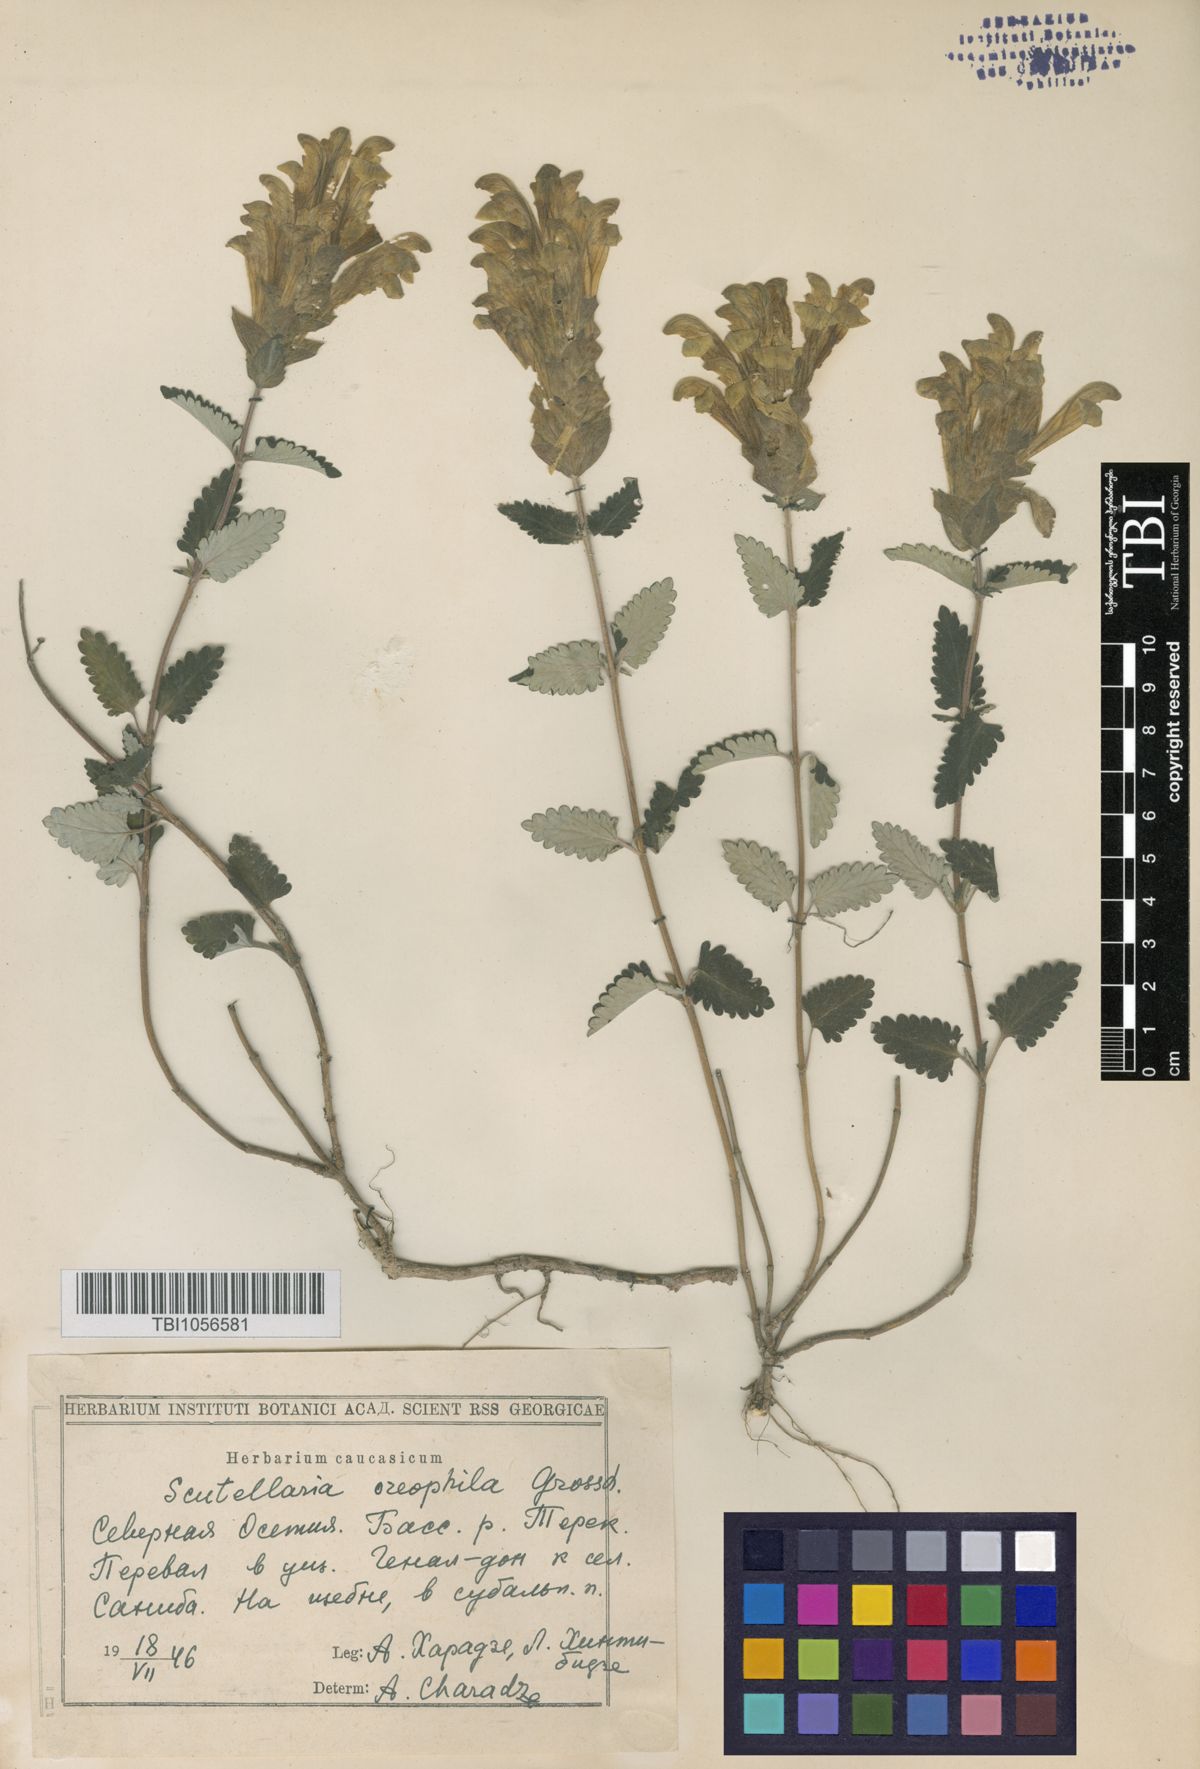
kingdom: Plantae
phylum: Tracheophyta
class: Magnoliopsida
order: Lamiales
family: Lamiaceae
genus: Scutellaria
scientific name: Scutellaria oreophila
